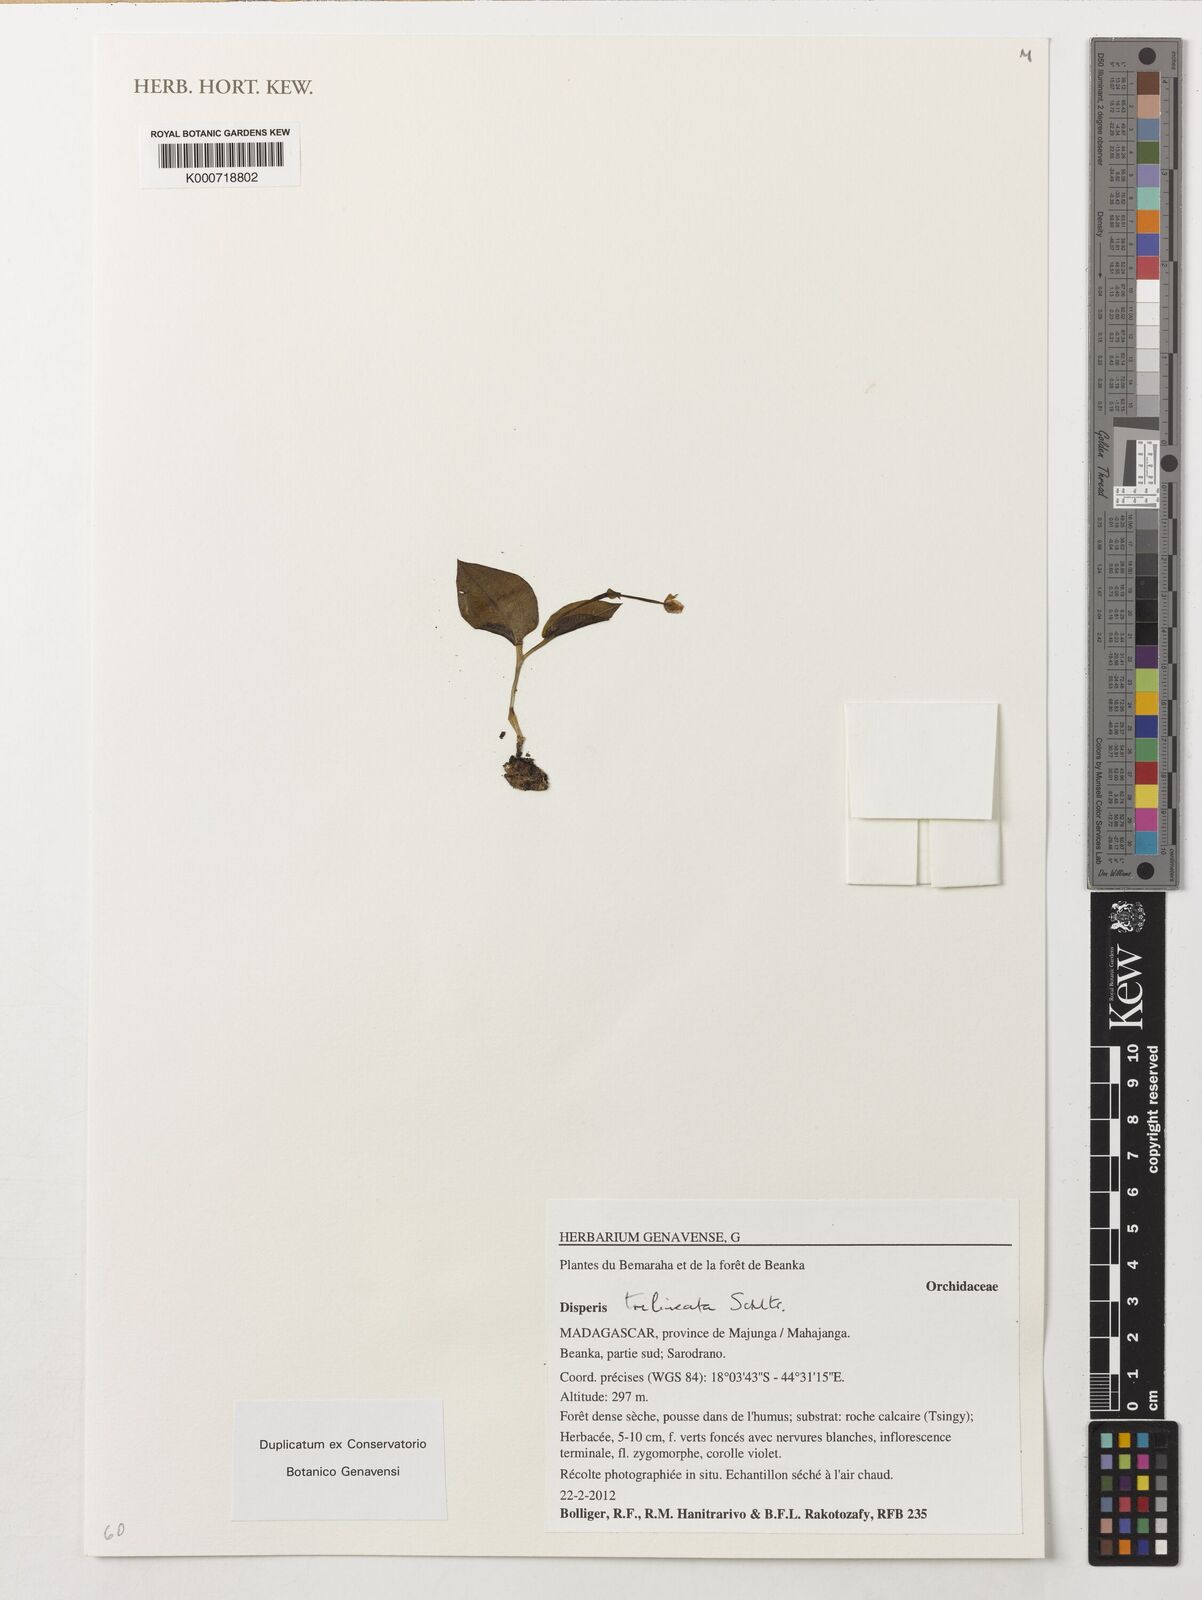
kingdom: Plantae
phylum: Tracheophyta
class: Liliopsida
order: Asparagales
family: Orchidaceae
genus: Disperis
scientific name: Disperis trilineata
